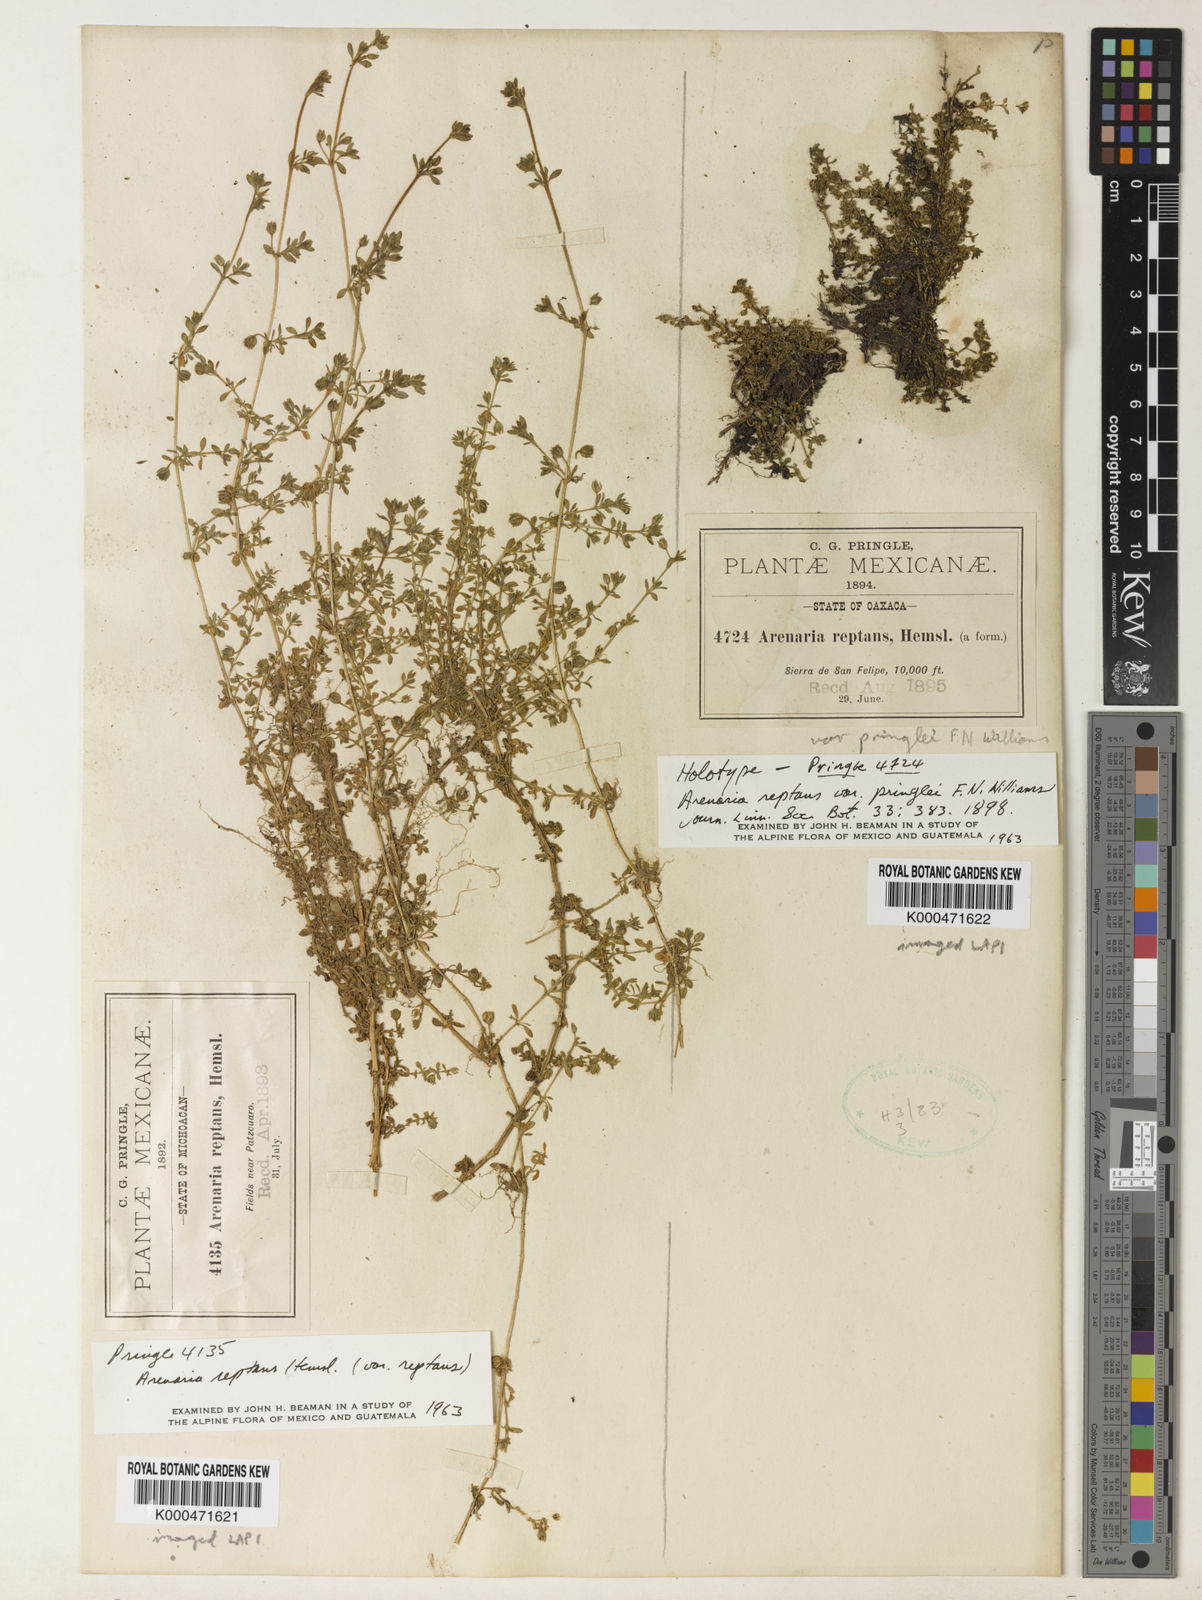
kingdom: Plantae
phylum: Tracheophyta
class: Magnoliopsida
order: Caryophyllales
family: Caryophyllaceae
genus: Arenaria
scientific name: Arenaria reptans
